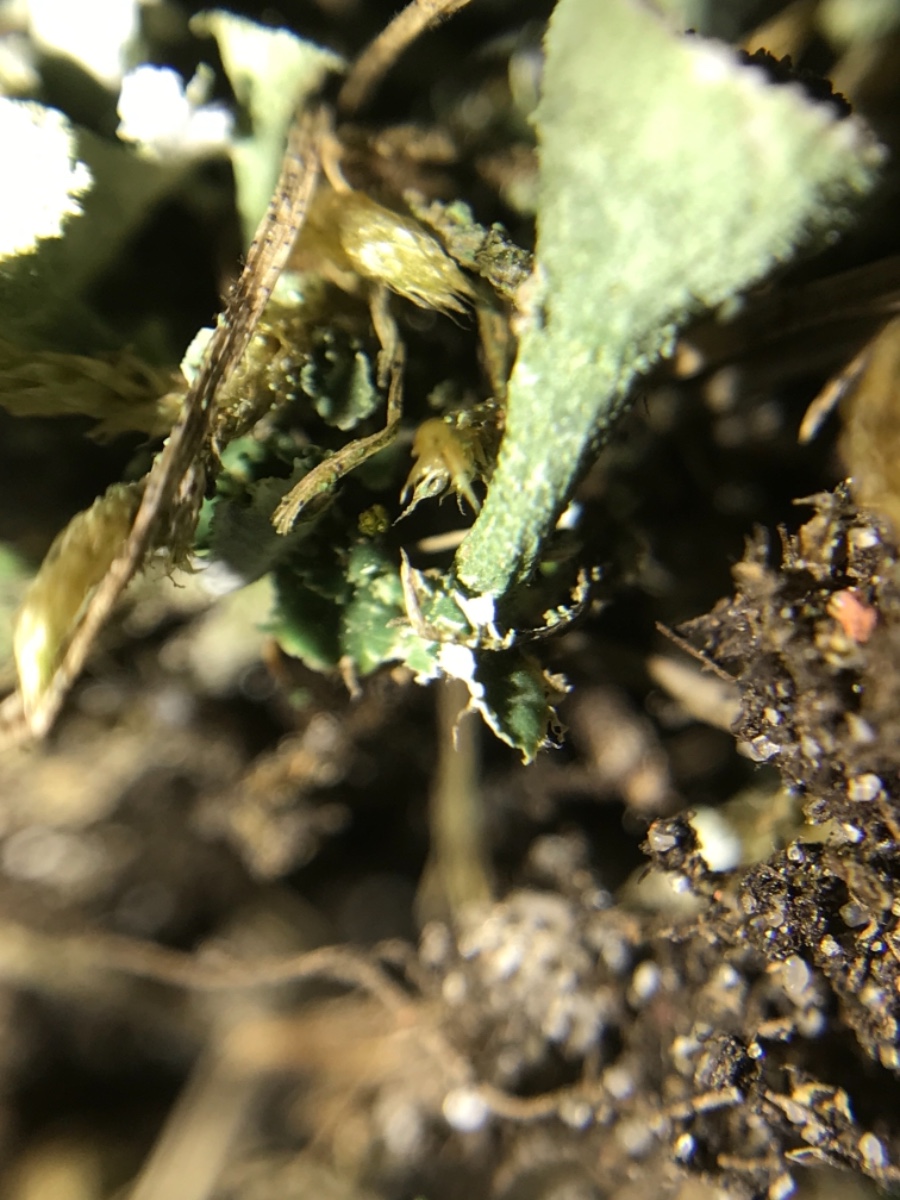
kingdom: Fungi
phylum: Ascomycota
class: Lecanoromycetes
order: Lecanorales
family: Cladoniaceae
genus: Cladonia
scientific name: Cladonia
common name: brungrøn bægerlav
